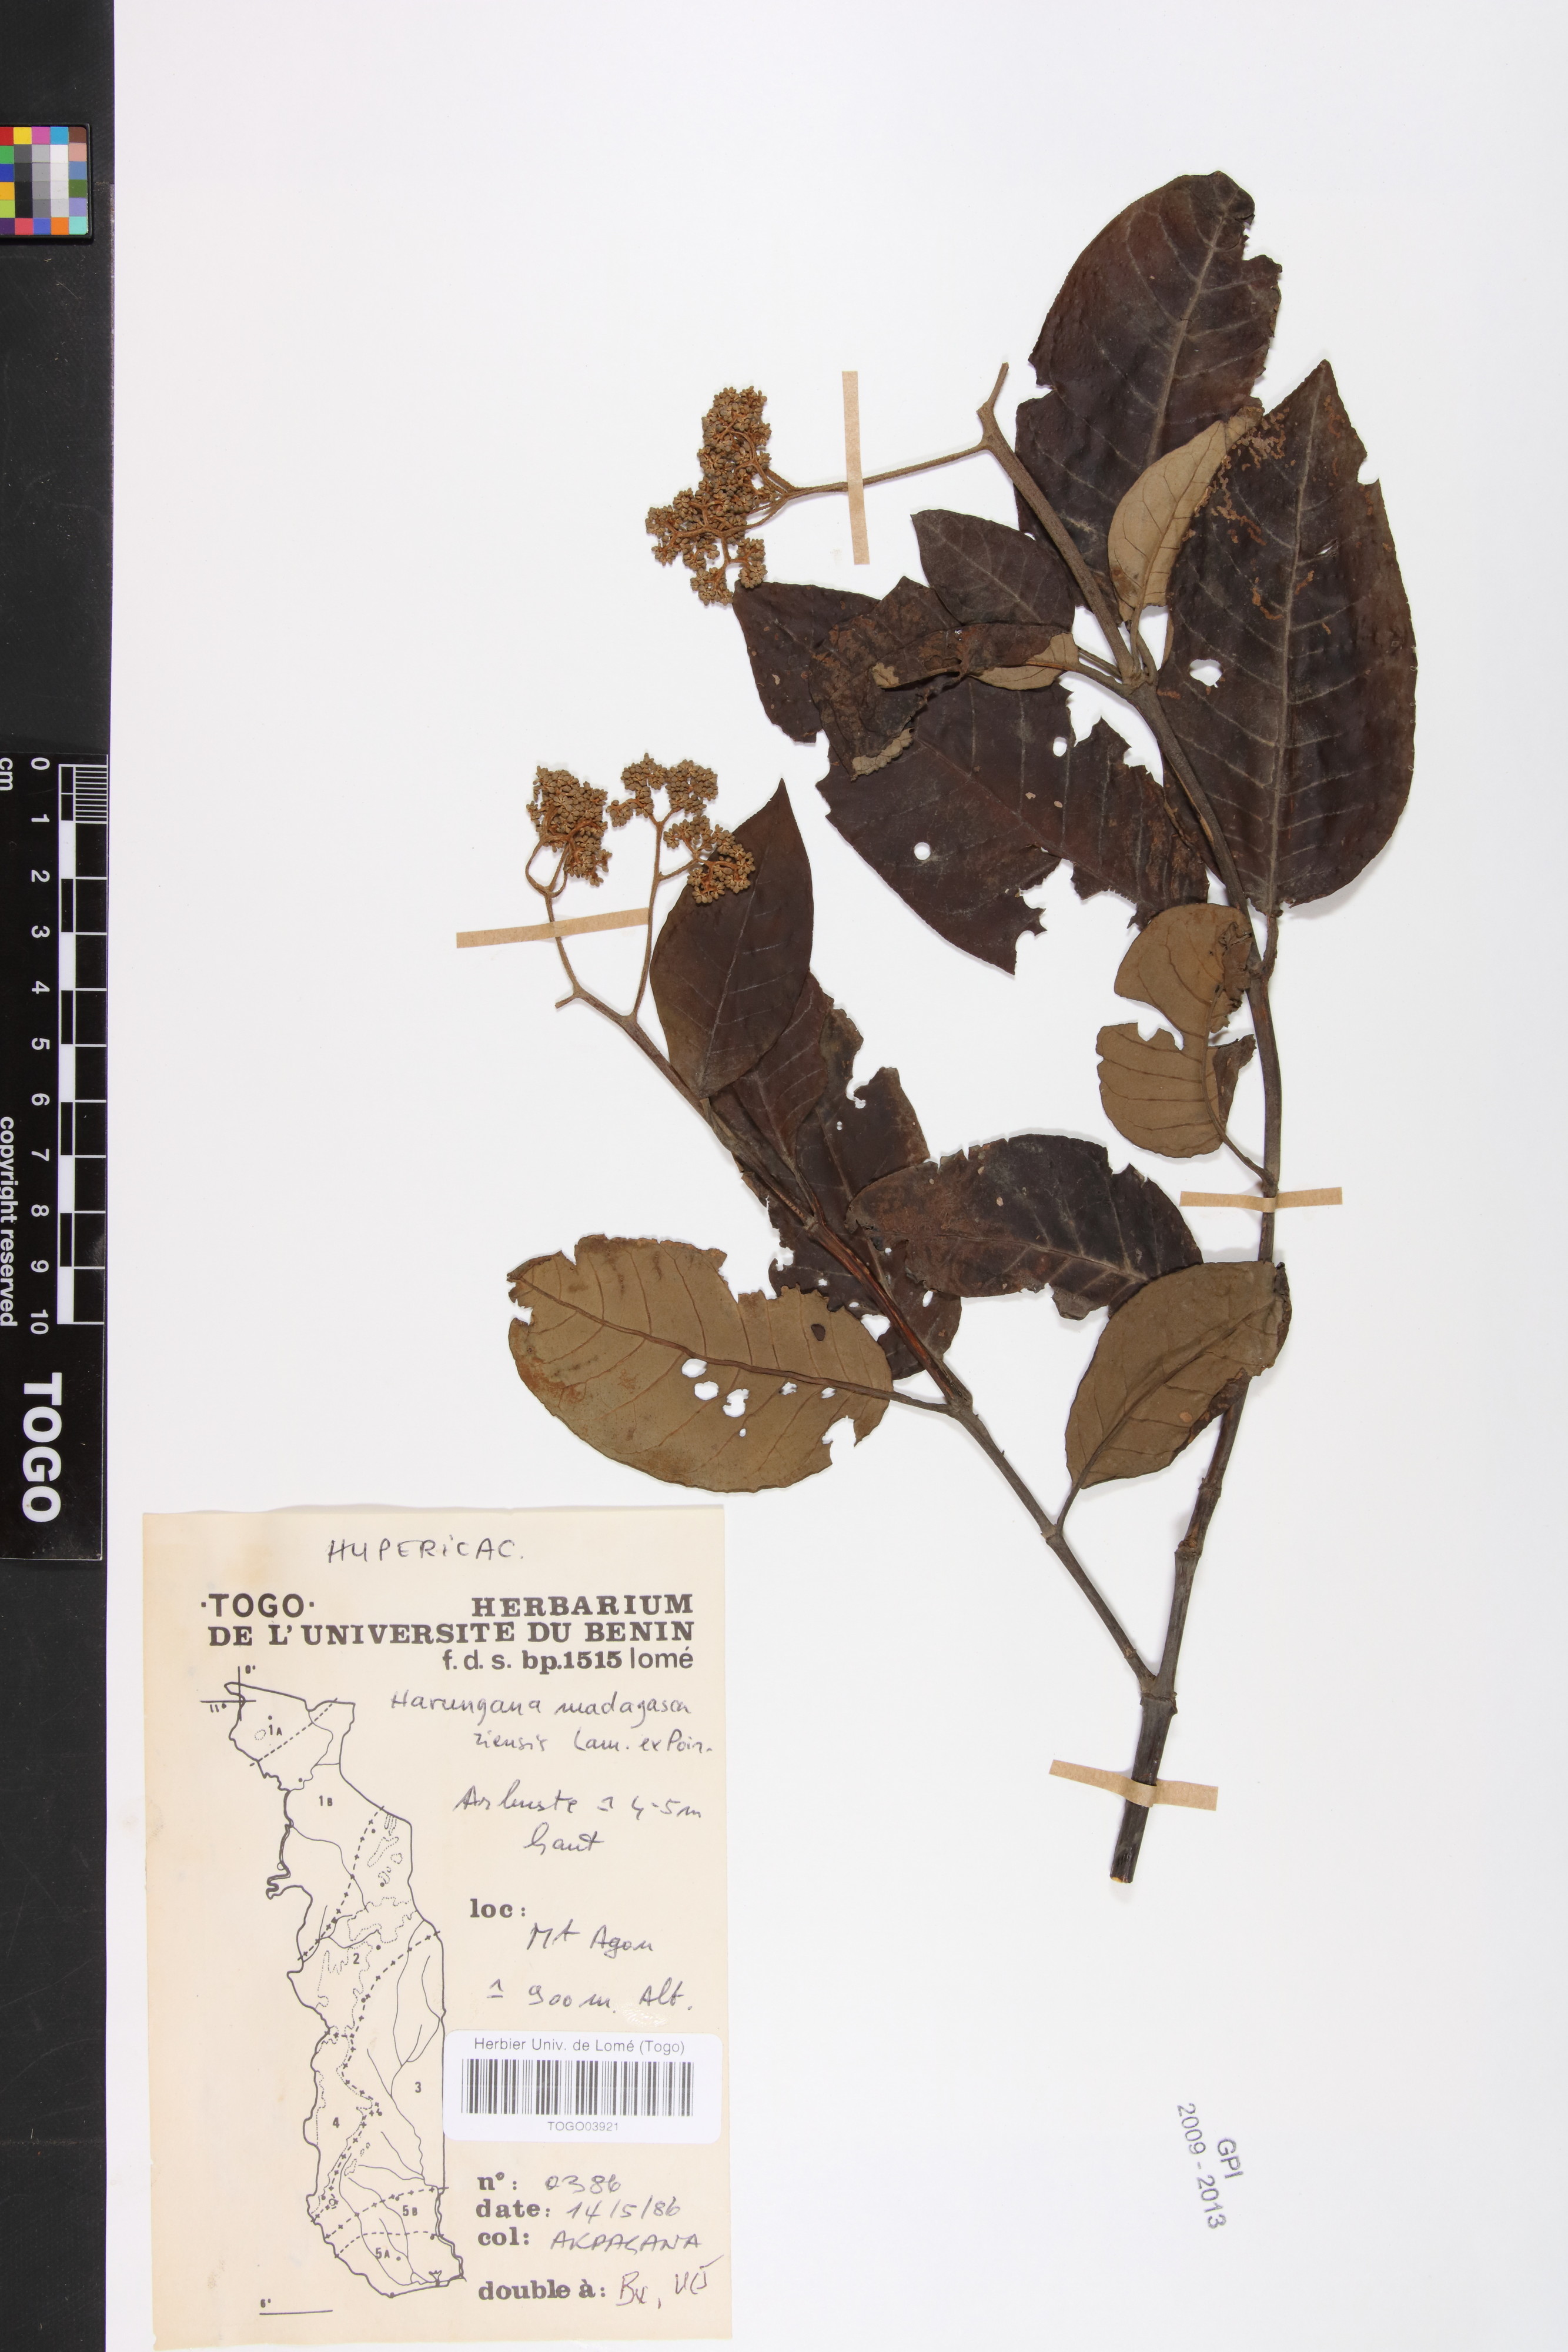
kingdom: Plantae
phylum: Tracheophyta
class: Magnoliopsida
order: Malpighiales
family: Clusiaceae
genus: Pentadesma
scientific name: Pentadesma butyracea
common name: Buttertree
